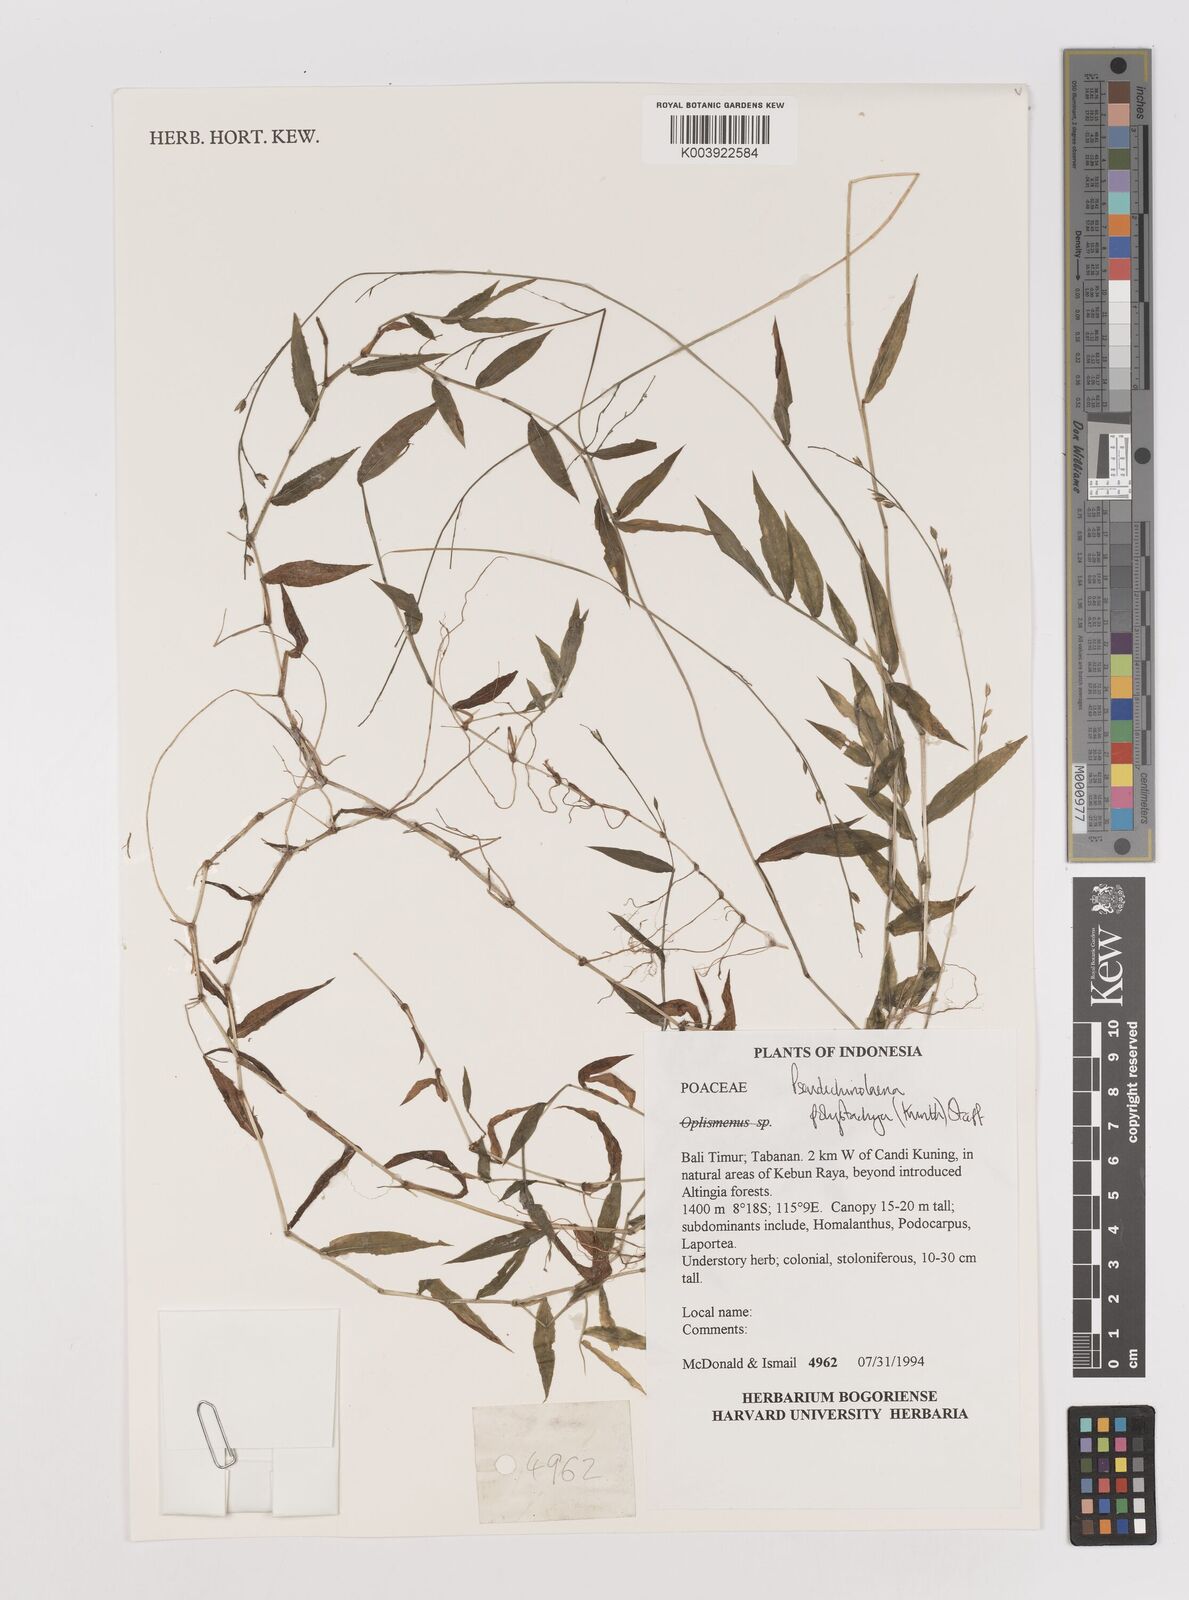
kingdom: Plantae
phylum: Tracheophyta
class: Liliopsida
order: Poales
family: Poaceae
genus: Pseudechinolaena
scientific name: Pseudechinolaena polystachya
